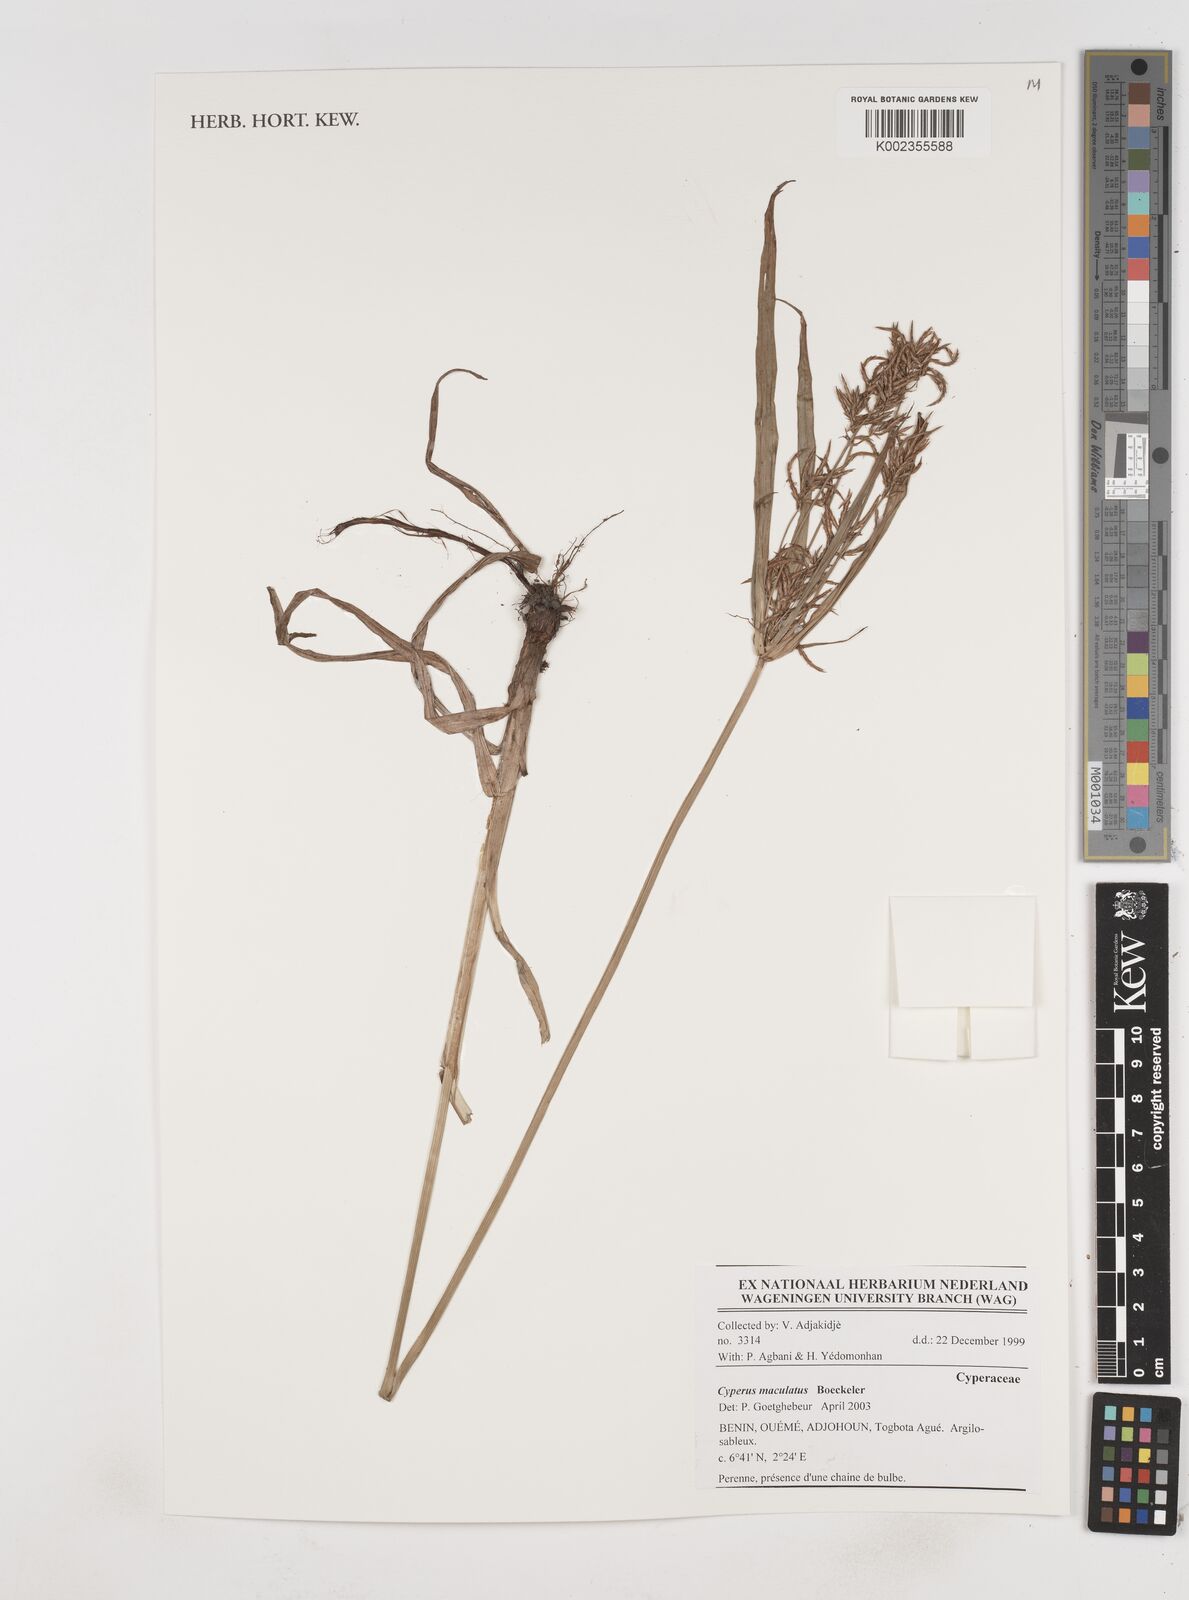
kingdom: Plantae
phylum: Tracheophyta
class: Liliopsida
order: Poales
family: Cyperaceae
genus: Cyperus
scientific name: Cyperus maculatus
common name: Maculated sedge
